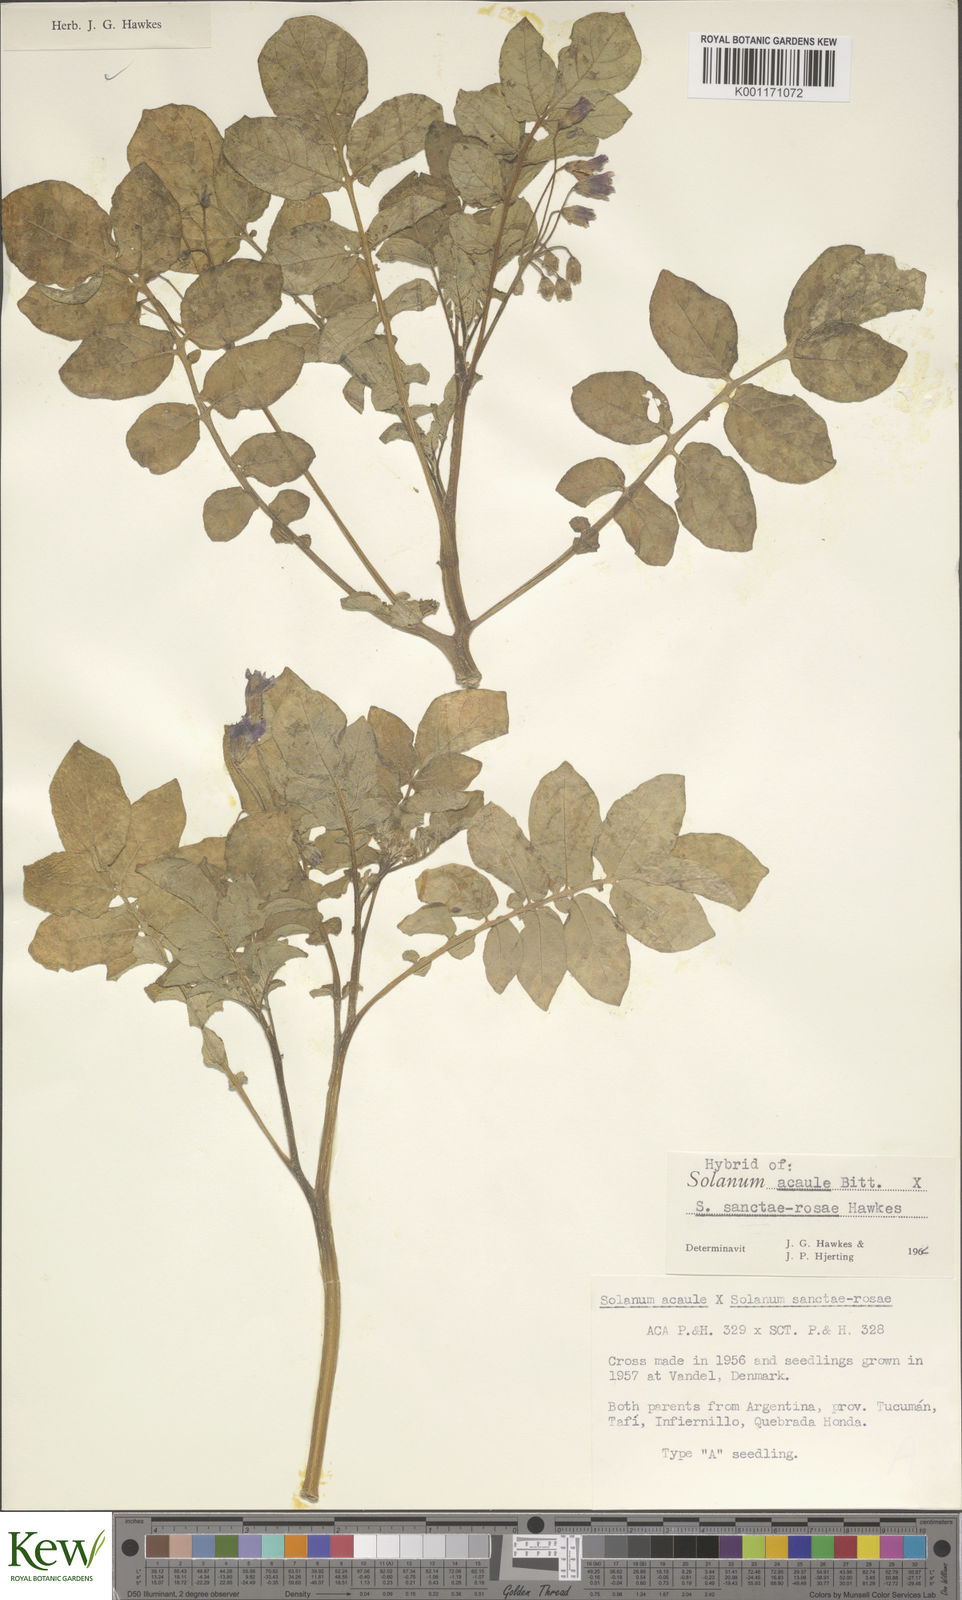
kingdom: Plantae
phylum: Tracheophyta
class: Magnoliopsida
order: Solanales
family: Solanaceae
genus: Solanum
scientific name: Solanum acaule
